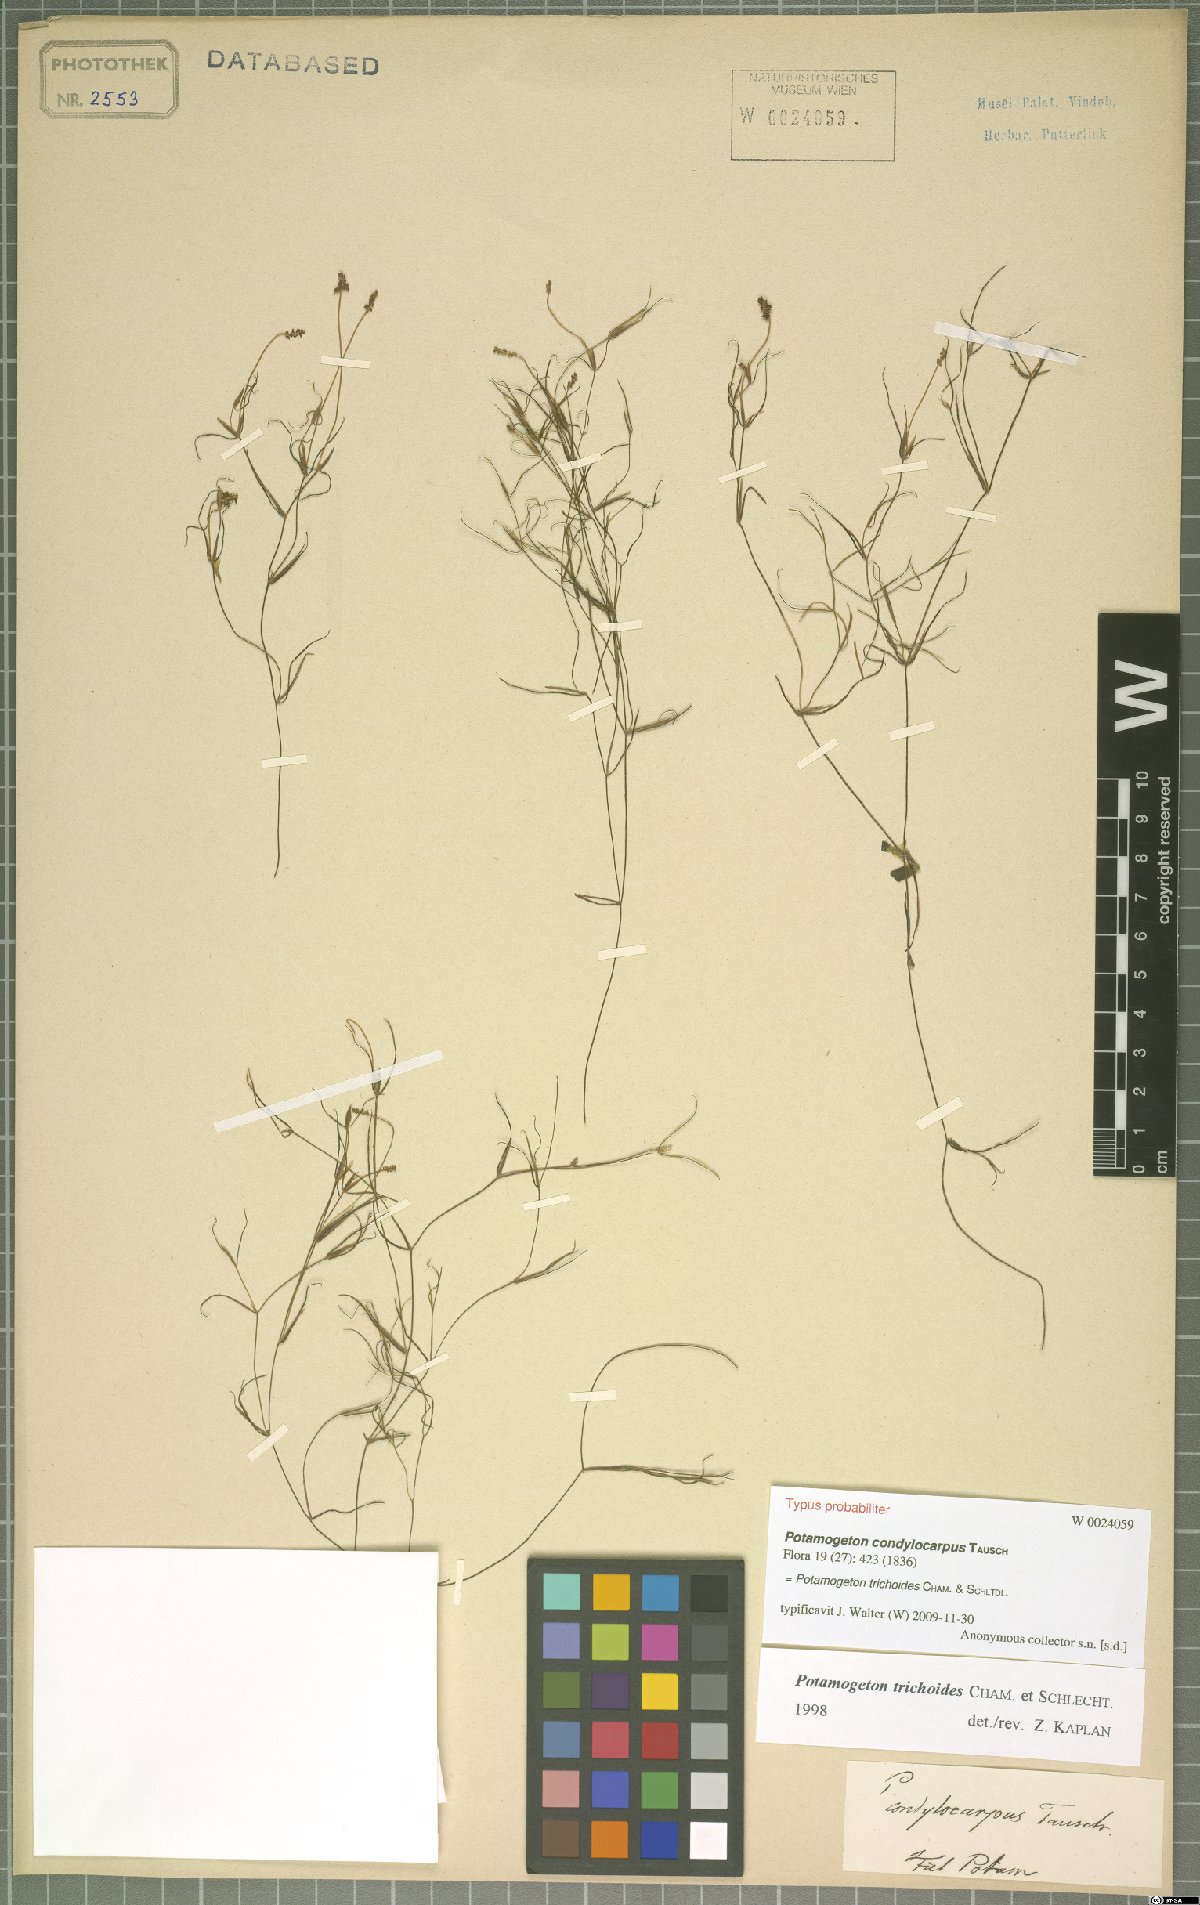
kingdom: Plantae
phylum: Tracheophyta
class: Liliopsida
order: Alismatales
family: Potamogetonaceae
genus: Potamogeton
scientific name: Potamogeton trichoides
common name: Hairlike pondweed
